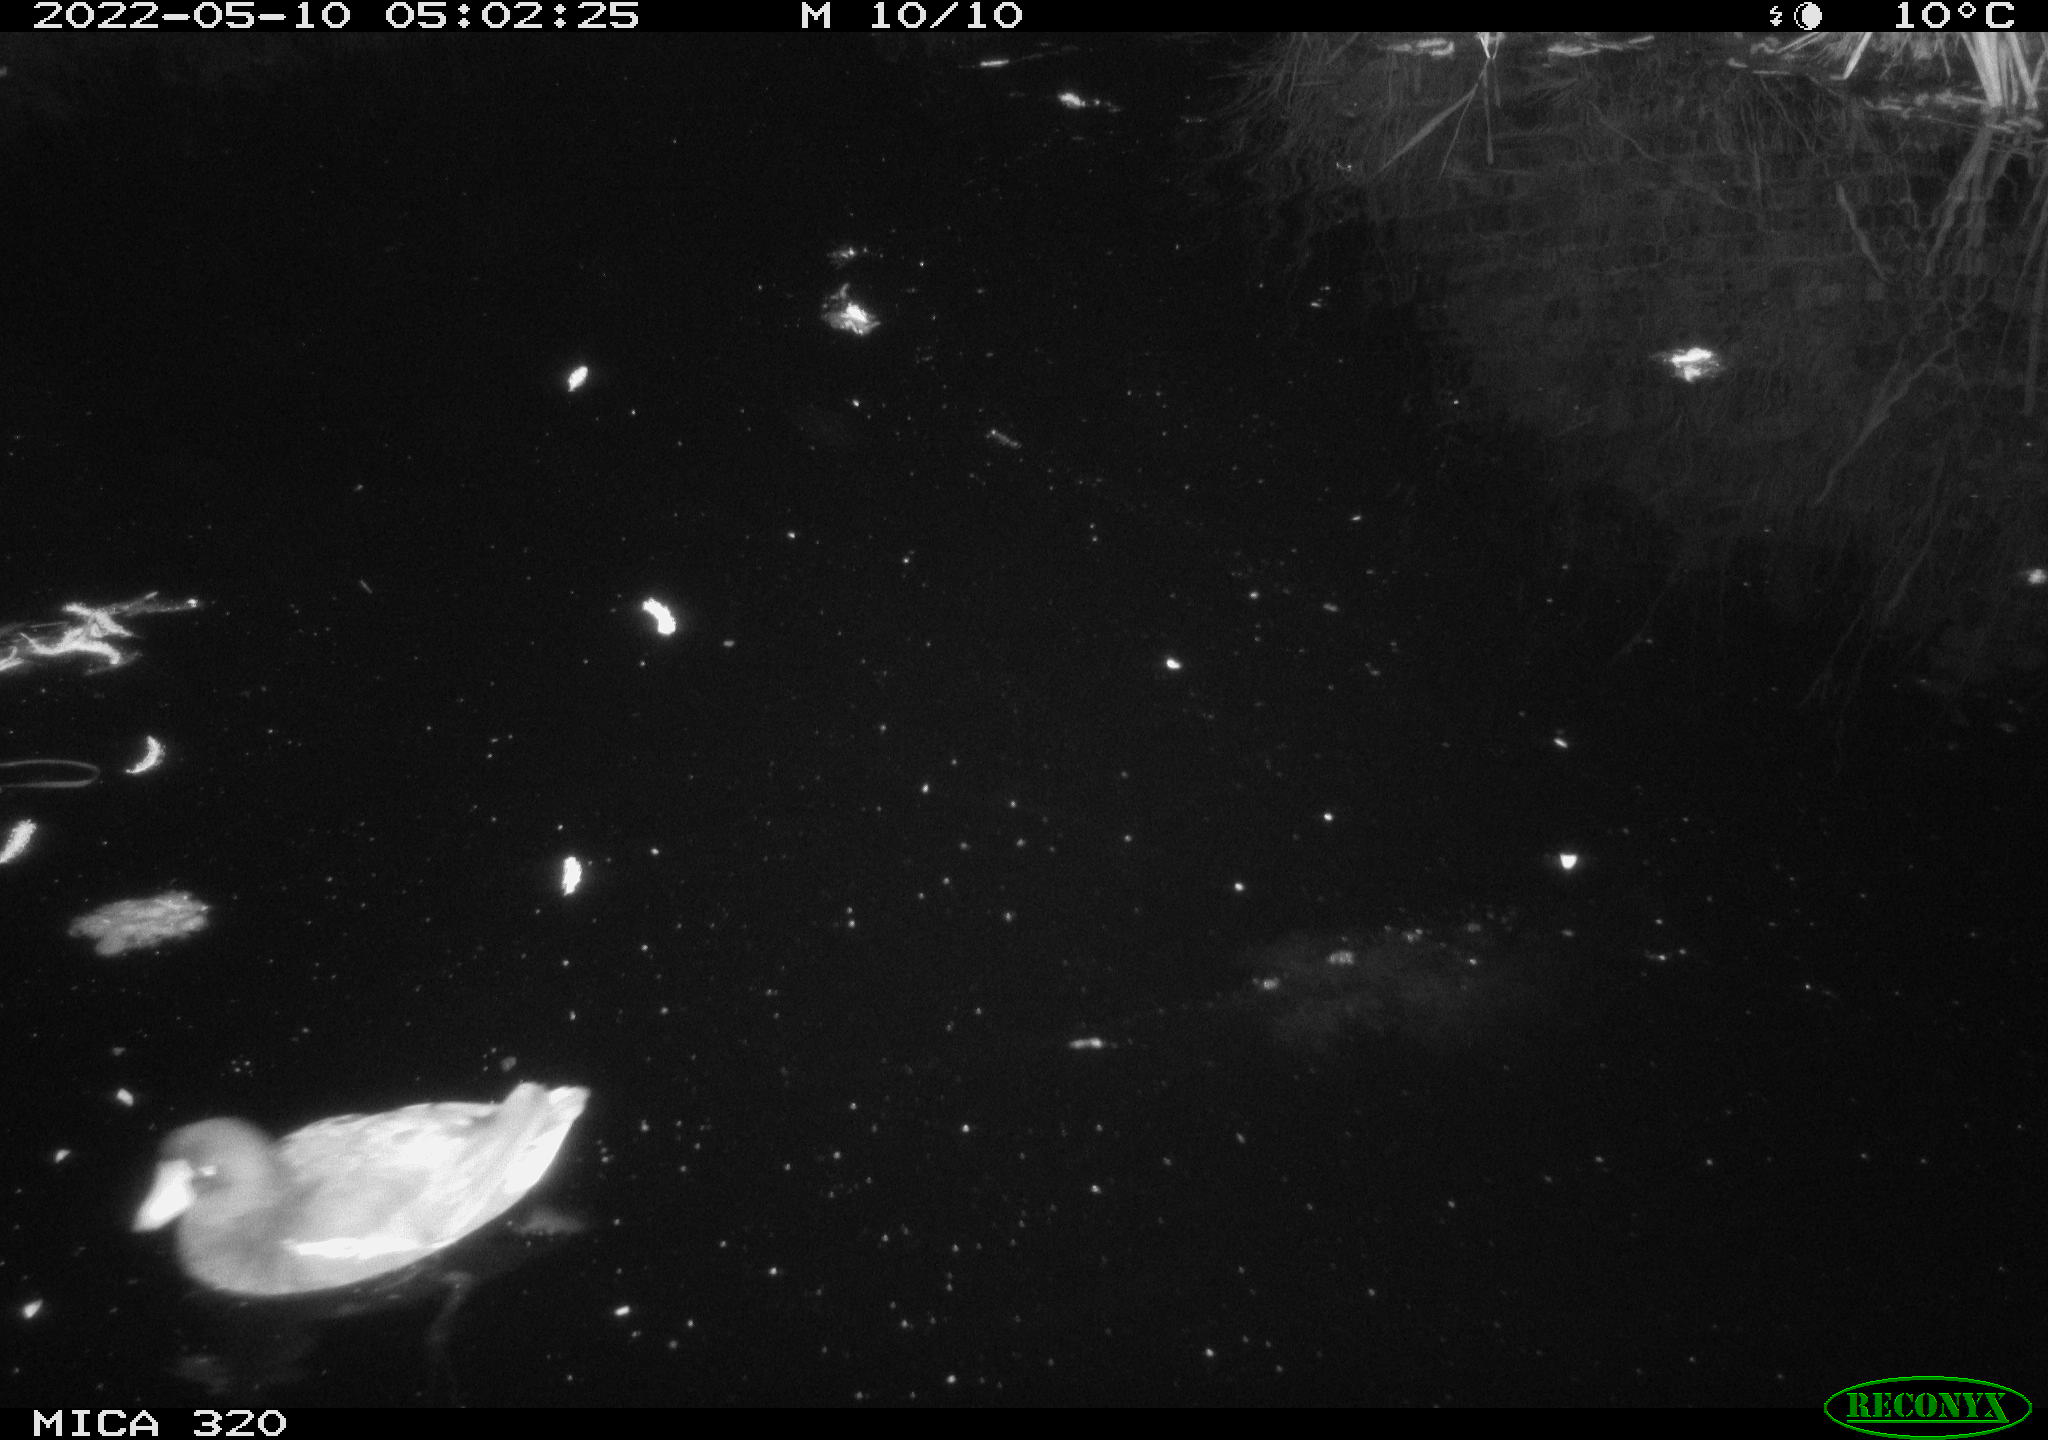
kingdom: Animalia
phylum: Chordata
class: Aves
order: Gruiformes
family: Rallidae
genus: Gallinula
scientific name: Gallinula chloropus
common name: Common moorhen
